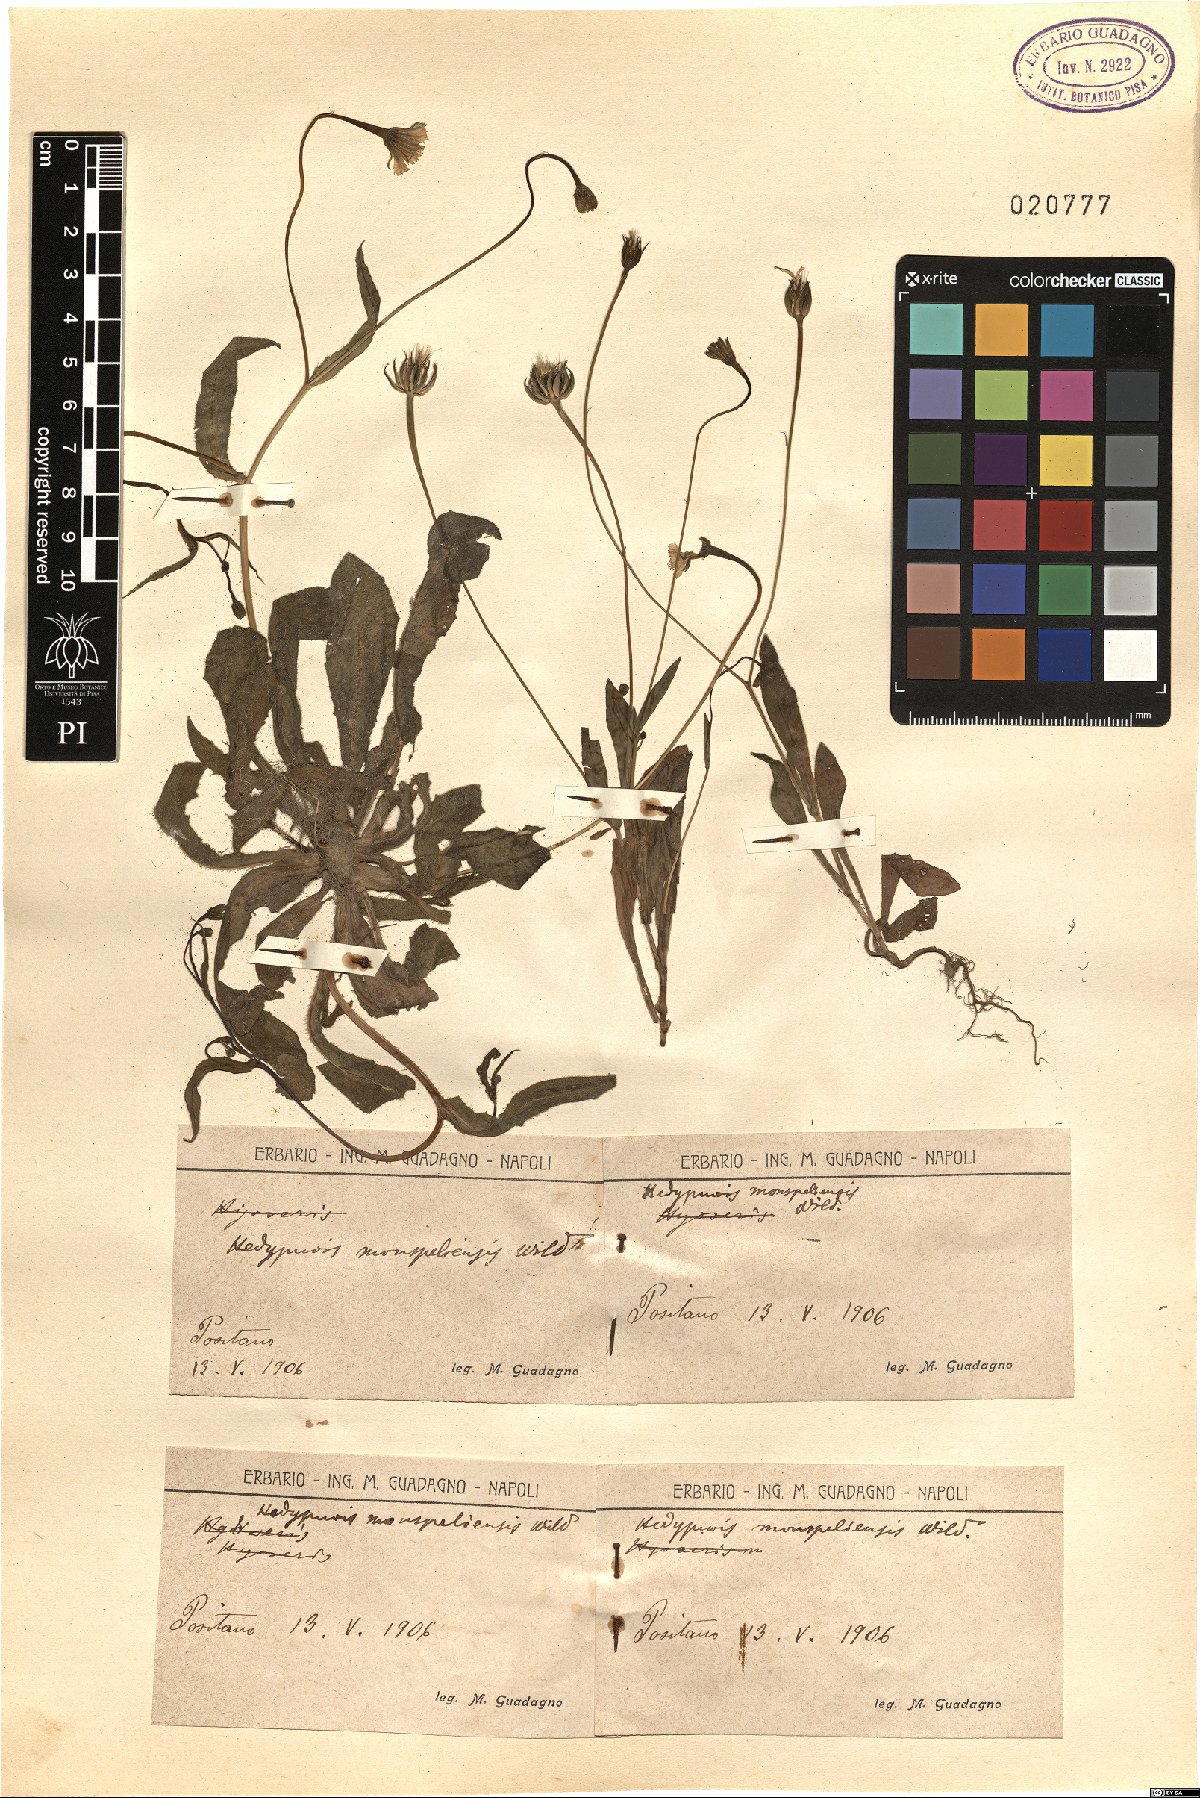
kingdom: Plantae
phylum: Tracheophyta
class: Magnoliopsida
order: Asterales
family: Asteraceae
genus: Hedypnois
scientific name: Hedypnois rhagadioloides
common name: Cretan weed
